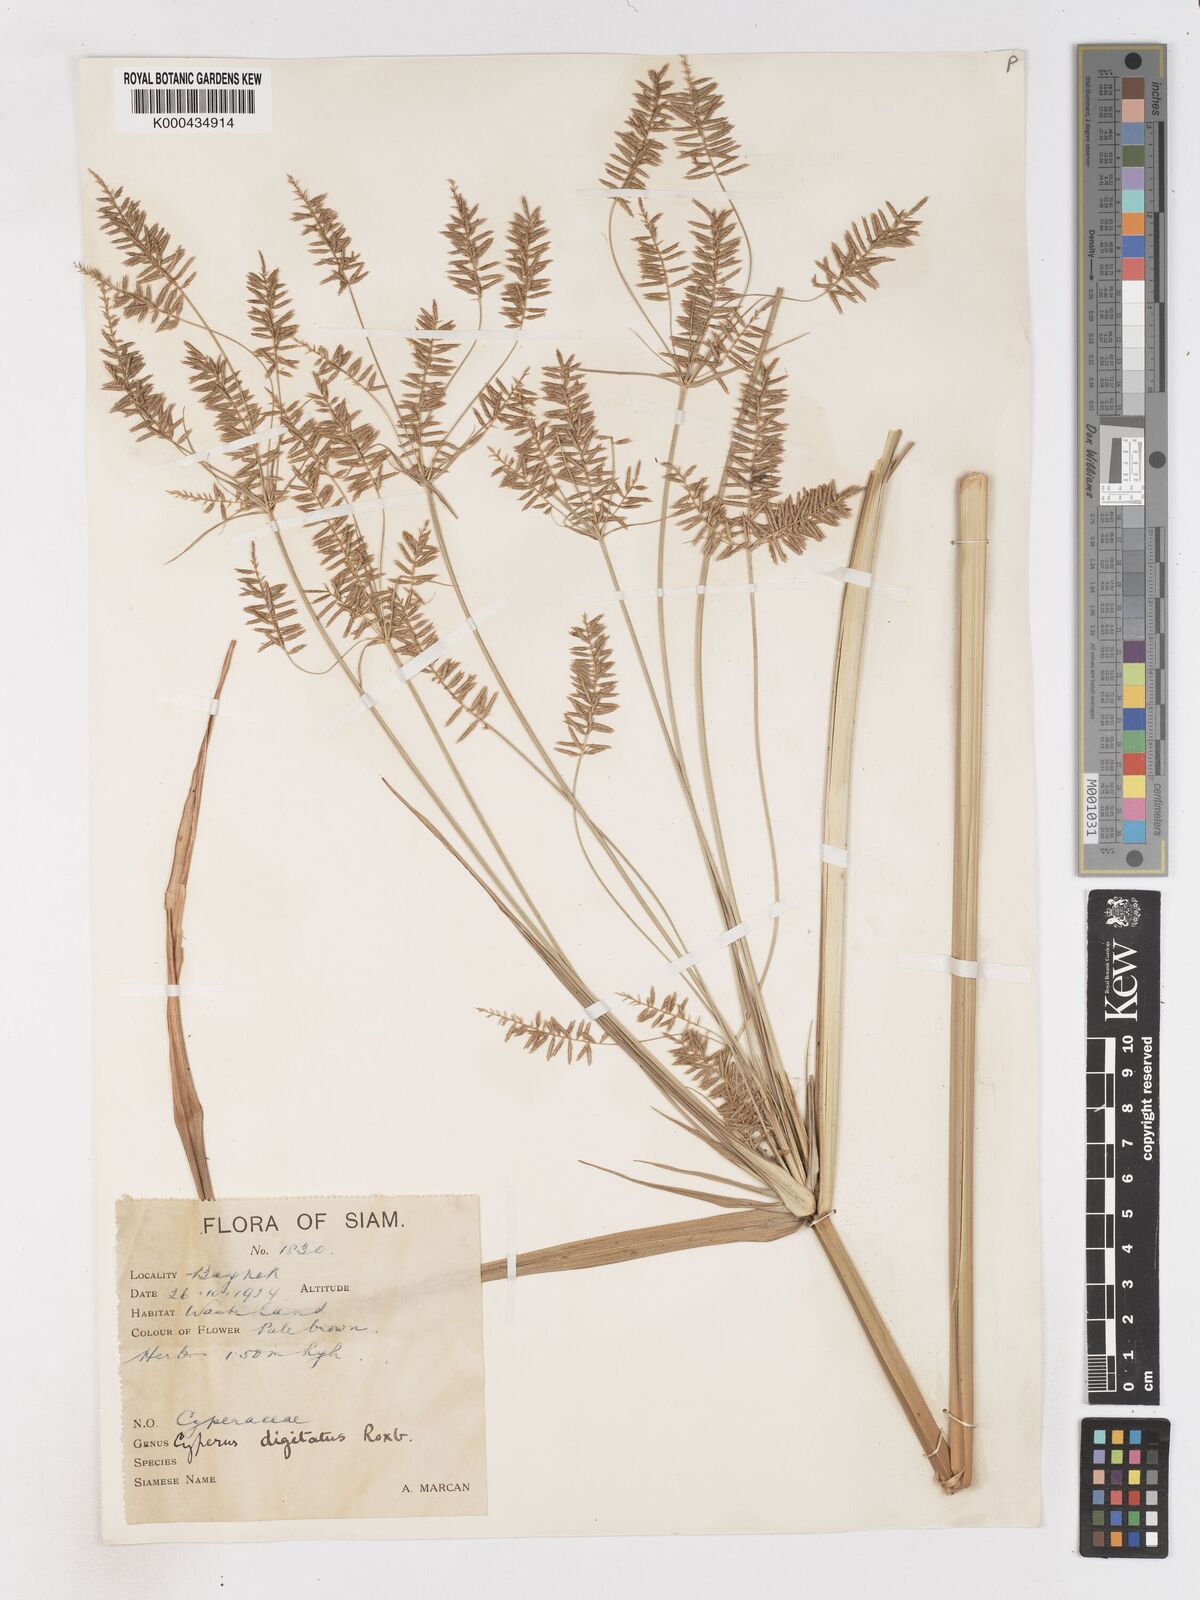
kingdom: Plantae
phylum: Tracheophyta
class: Liliopsida
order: Poales
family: Cyperaceae
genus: Cyperus
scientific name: Cyperus digitatus
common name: Finger flatsedge
